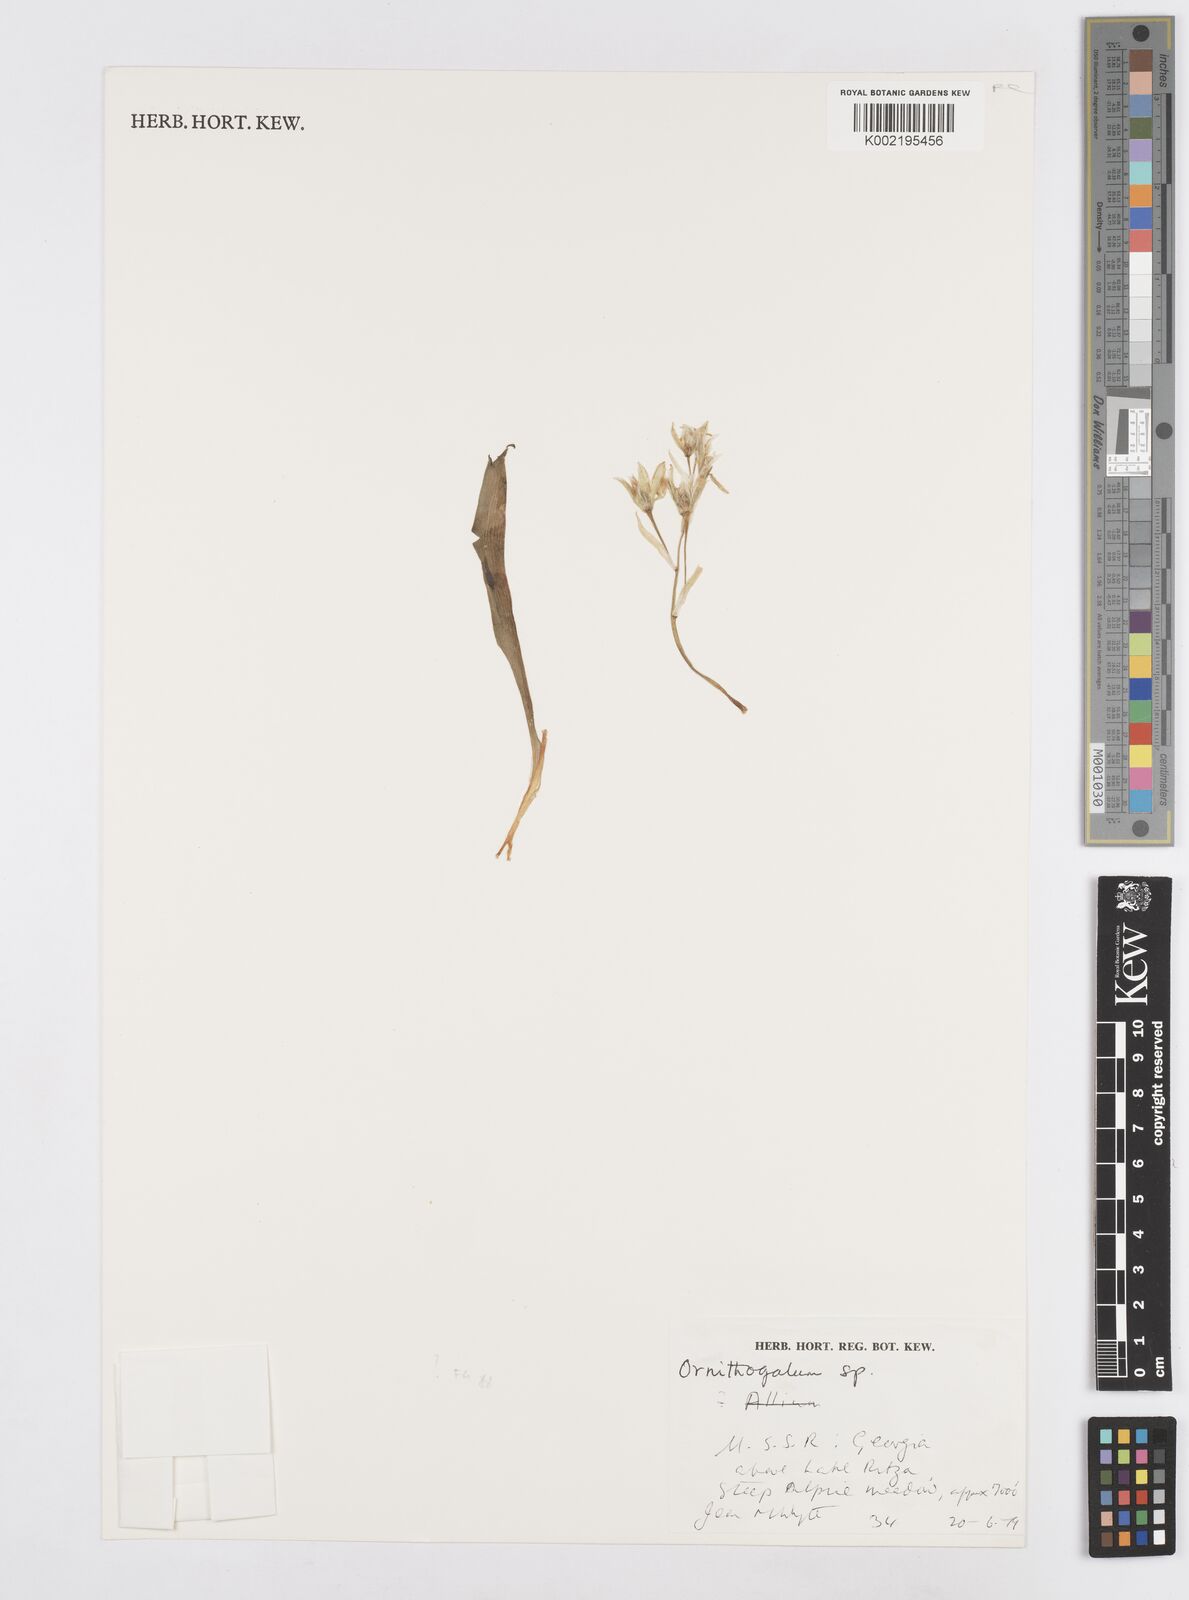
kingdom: Plantae
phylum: Tracheophyta
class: Liliopsida
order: Asparagales
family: Asparagaceae
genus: Ornithogalum
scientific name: Ornithogalum
